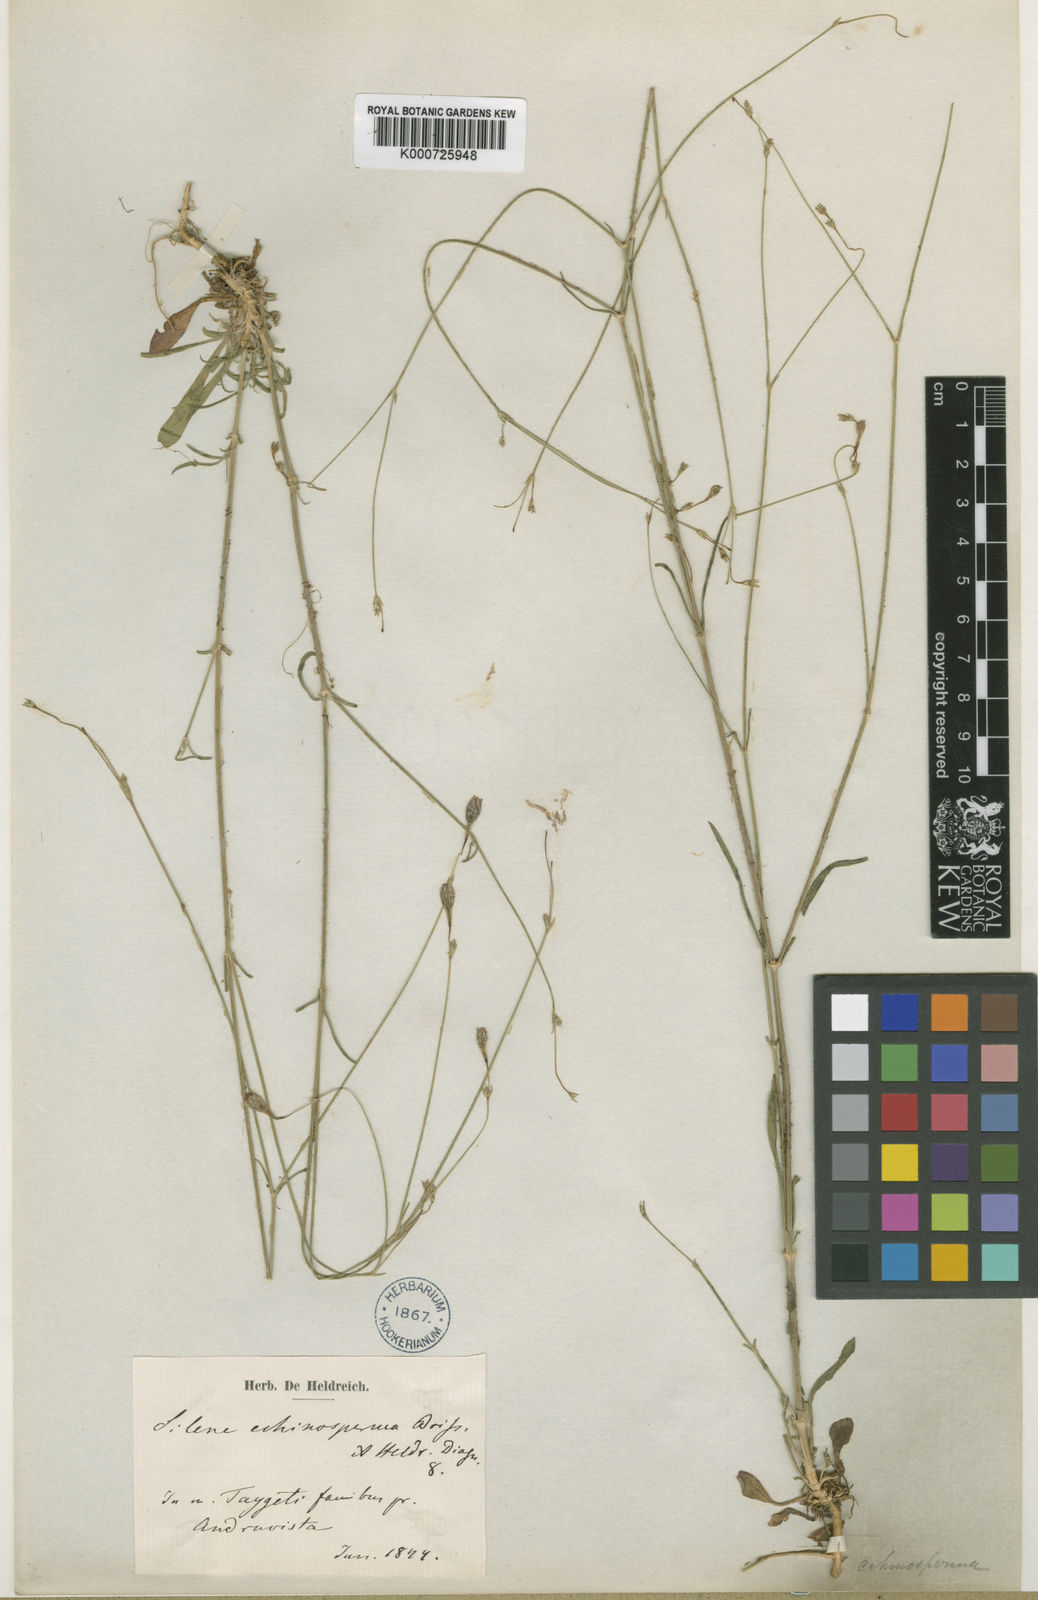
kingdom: Plantae
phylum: Tracheophyta
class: Magnoliopsida
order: Caryophyllales
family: Caryophyllaceae
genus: Silene
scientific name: Silene echinosperma
